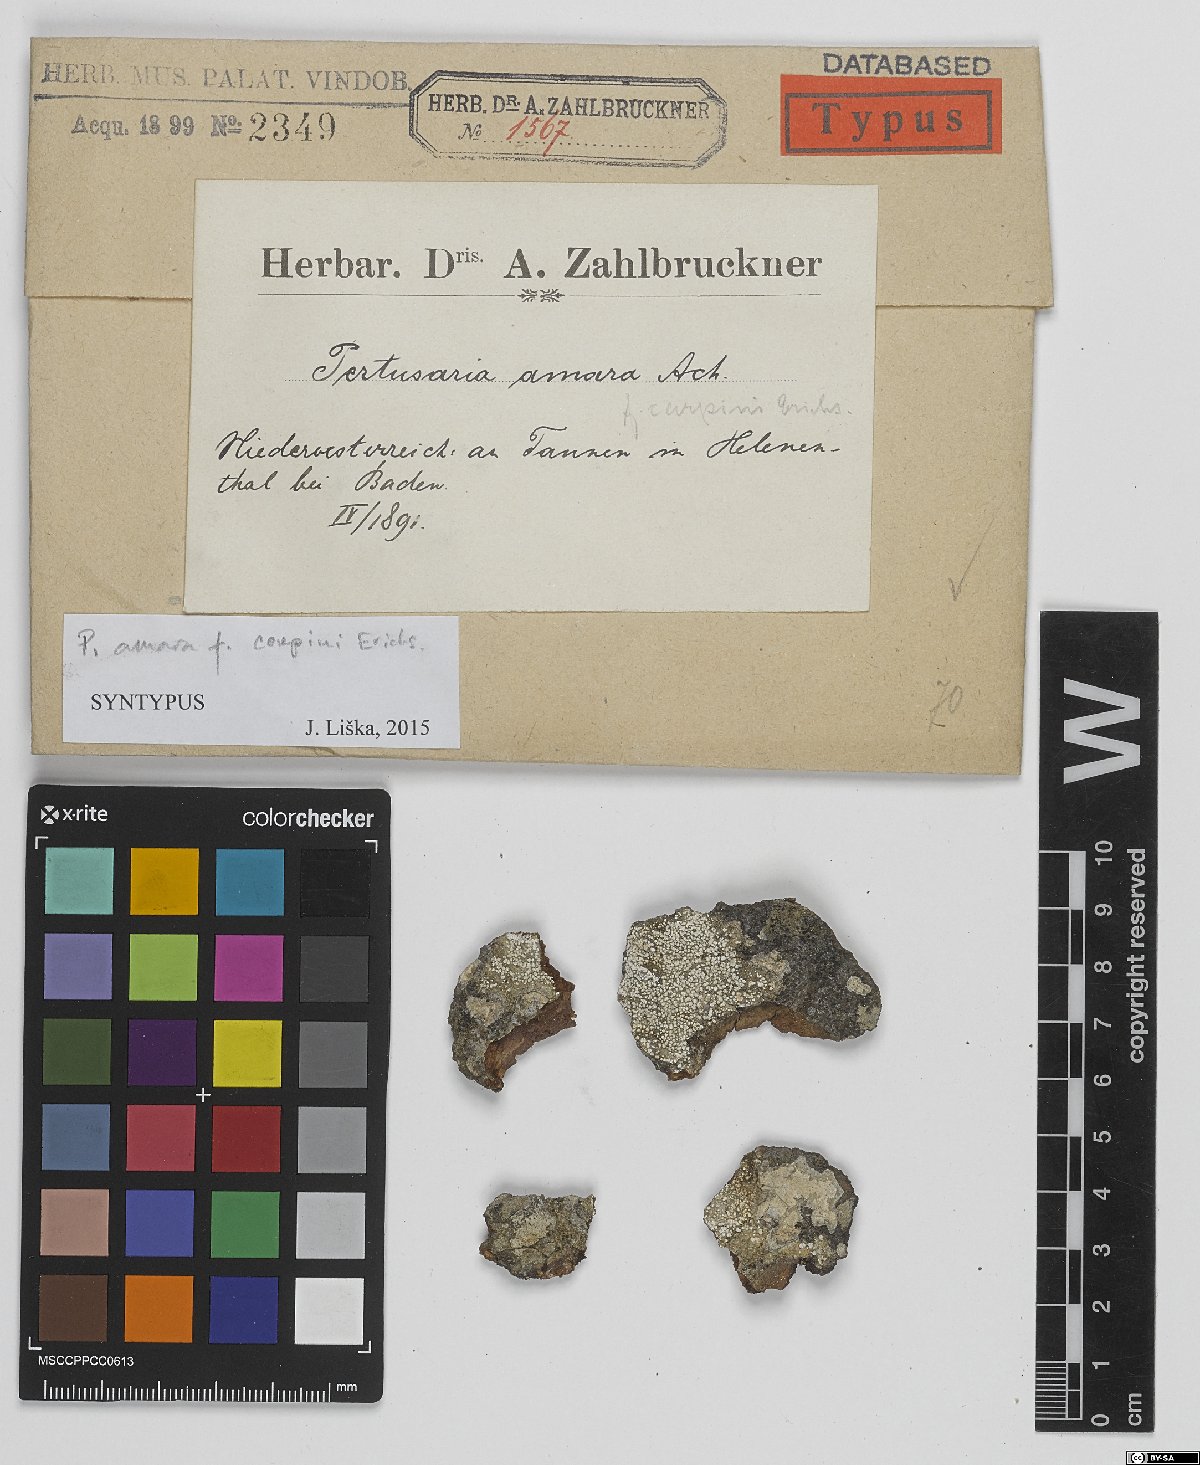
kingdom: Fungi
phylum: Ascomycota
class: Lecanoromycetes
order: Pertusariales
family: Pertusariaceae
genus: Lepra
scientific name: Lepra amara
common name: Bitter wart lichen
